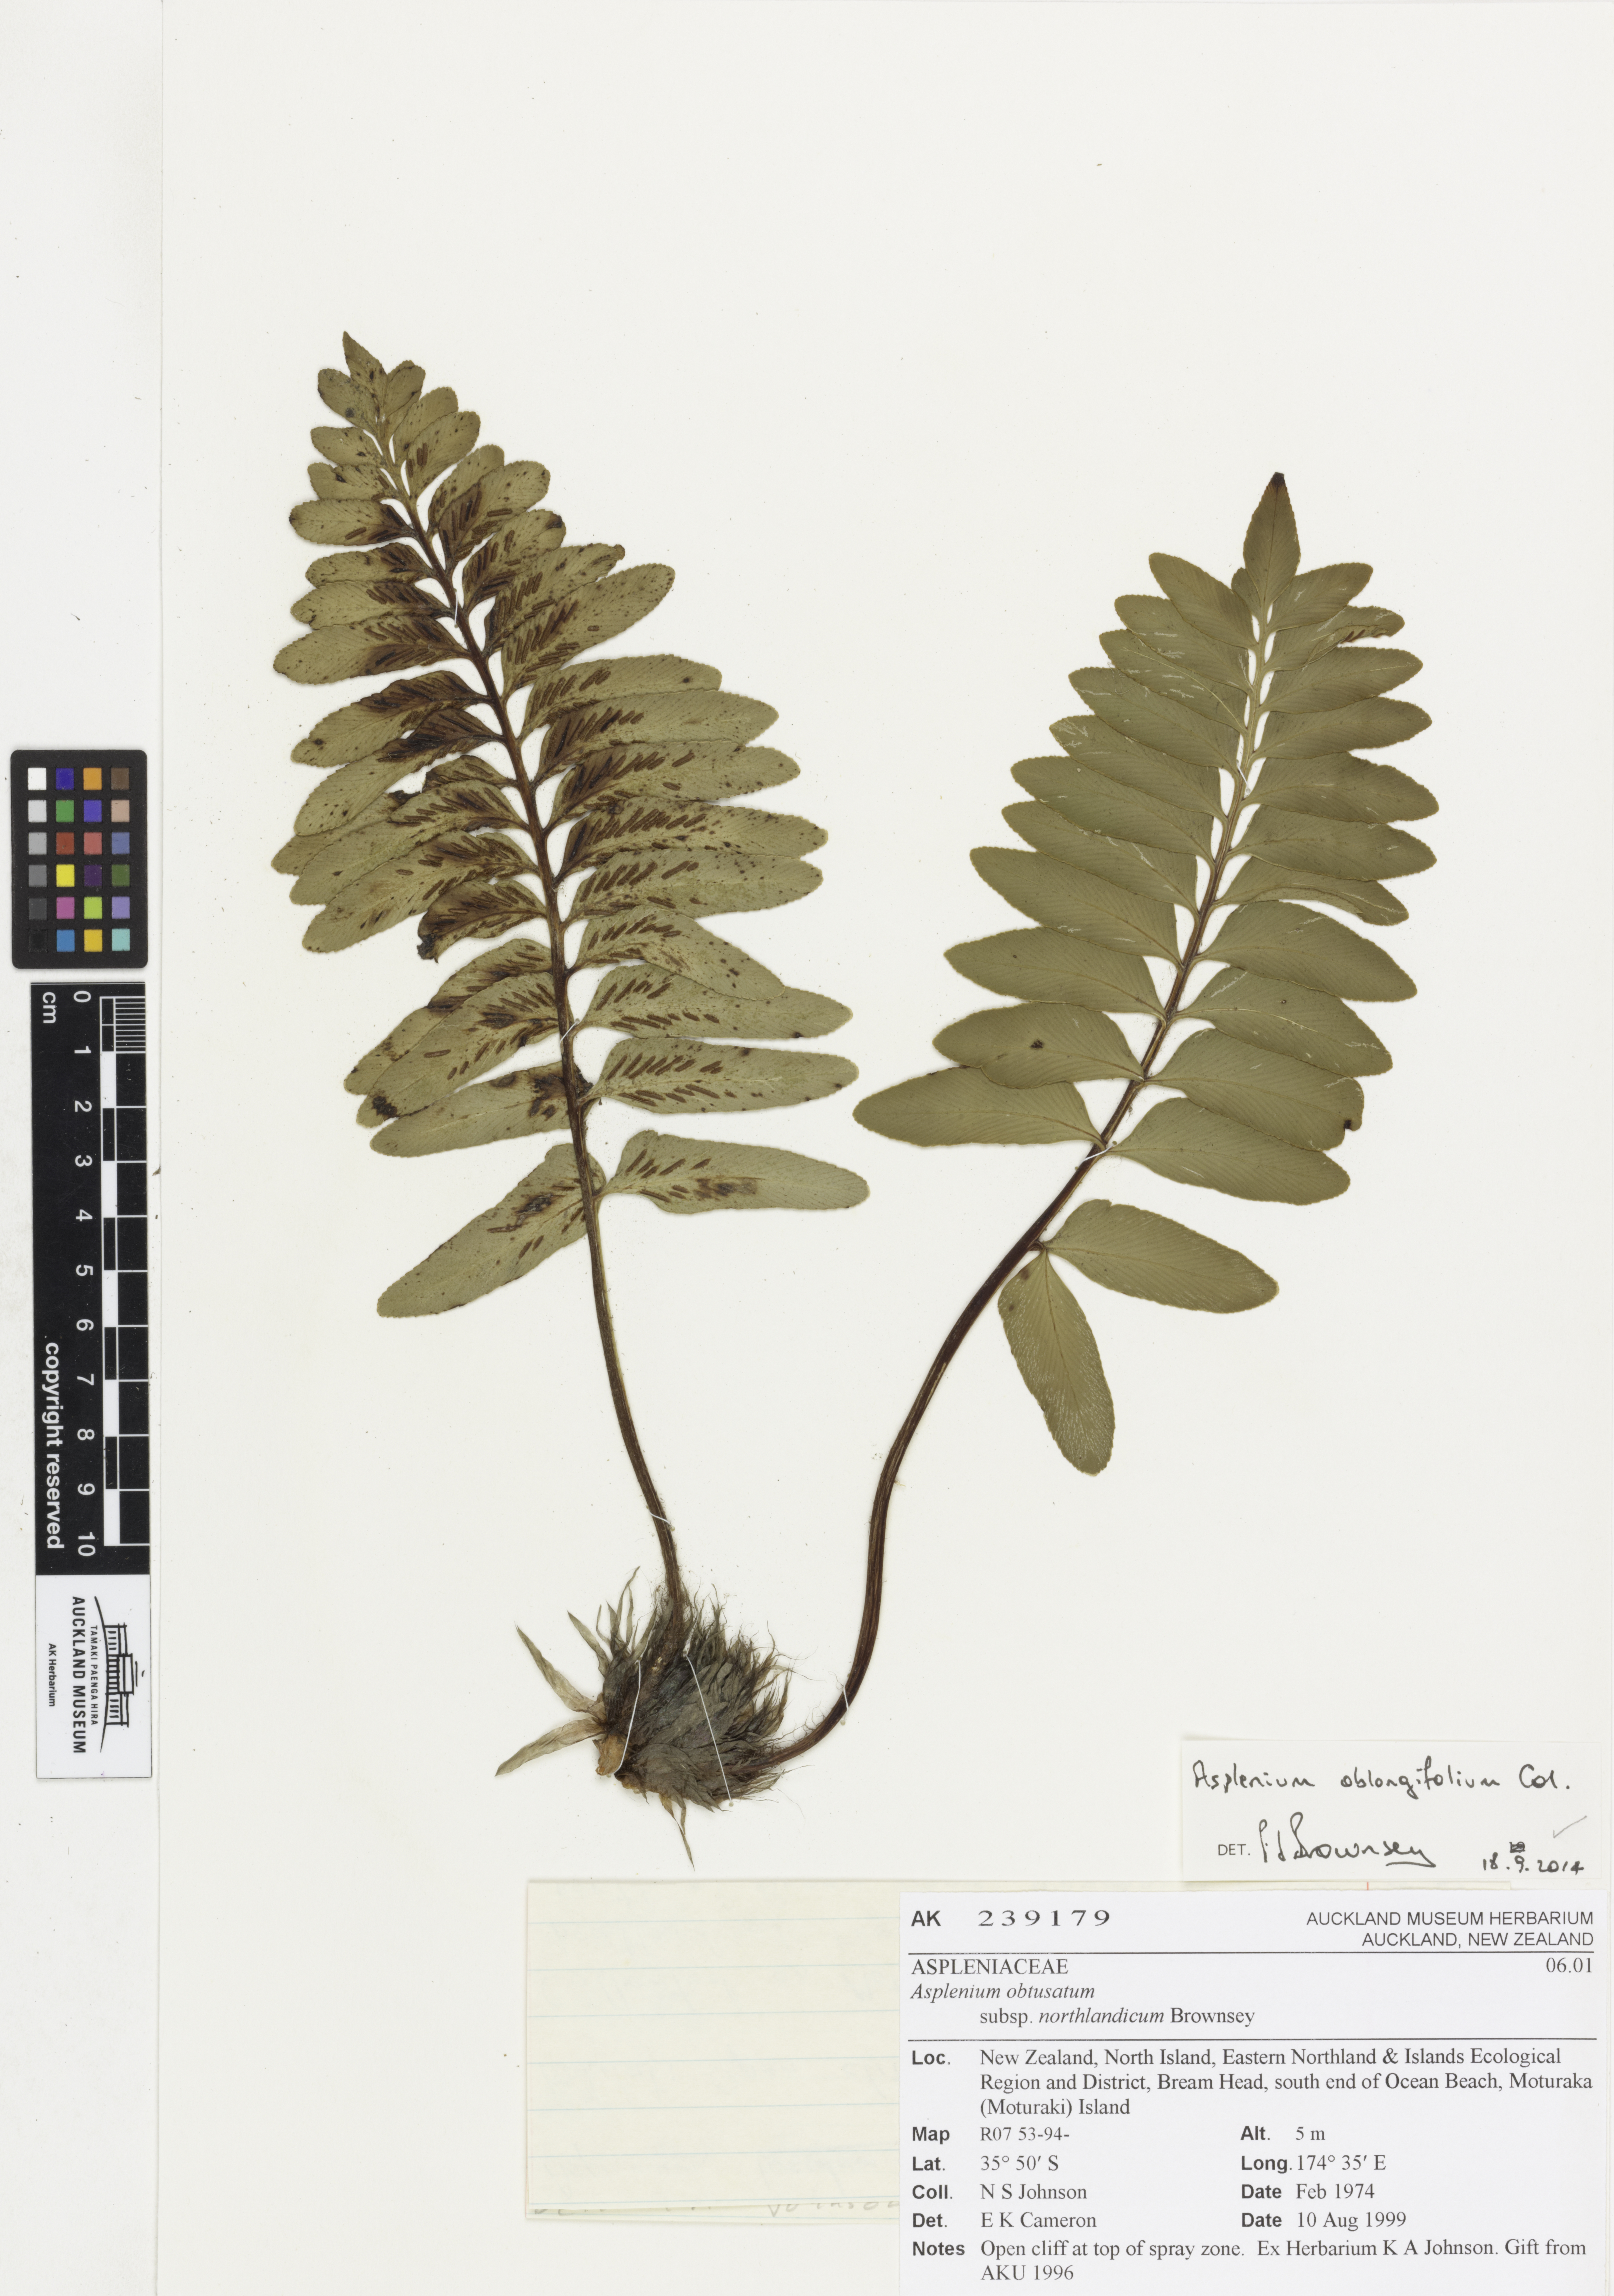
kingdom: Plantae
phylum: Tracheophyta
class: Polypodiopsida
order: Polypodiales
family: Aspleniaceae
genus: Asplenium
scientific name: Asplenium oblongifolium
